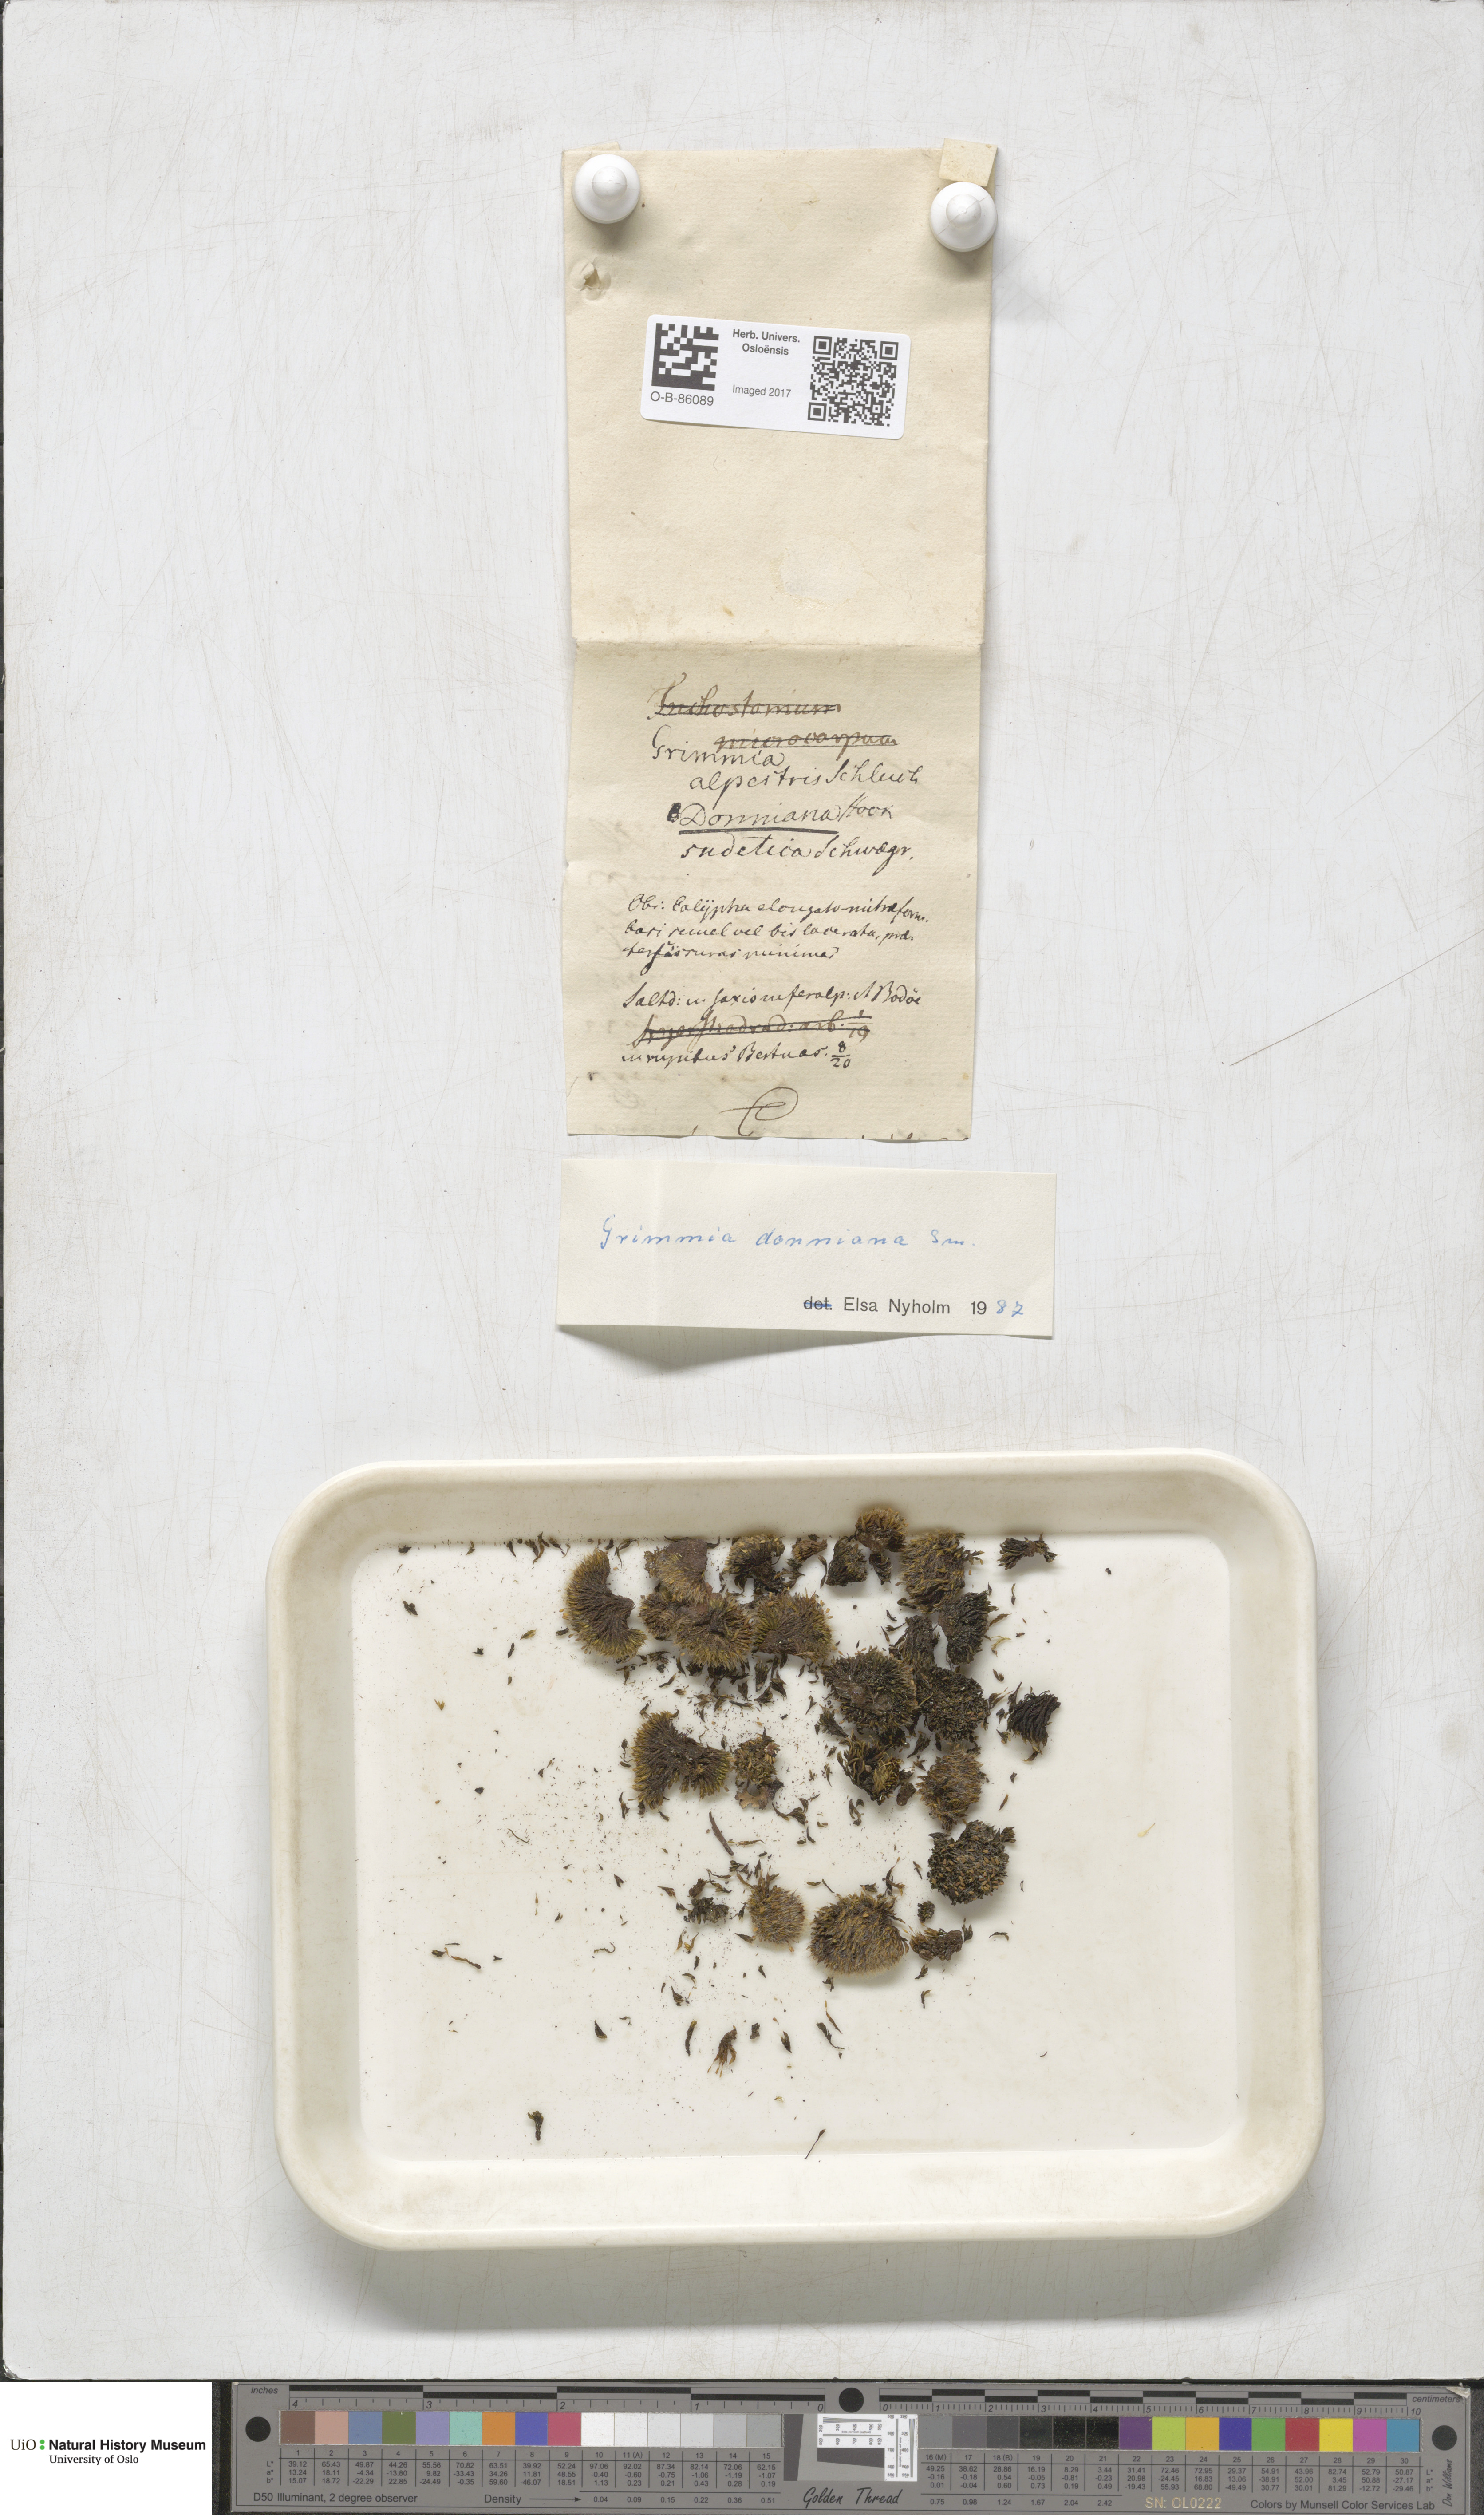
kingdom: Plantae
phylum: Bryophyta
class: Bryopsida
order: Grimmiales
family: Grimmiaceae
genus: Grimmia
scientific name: Grimmia alpestris
